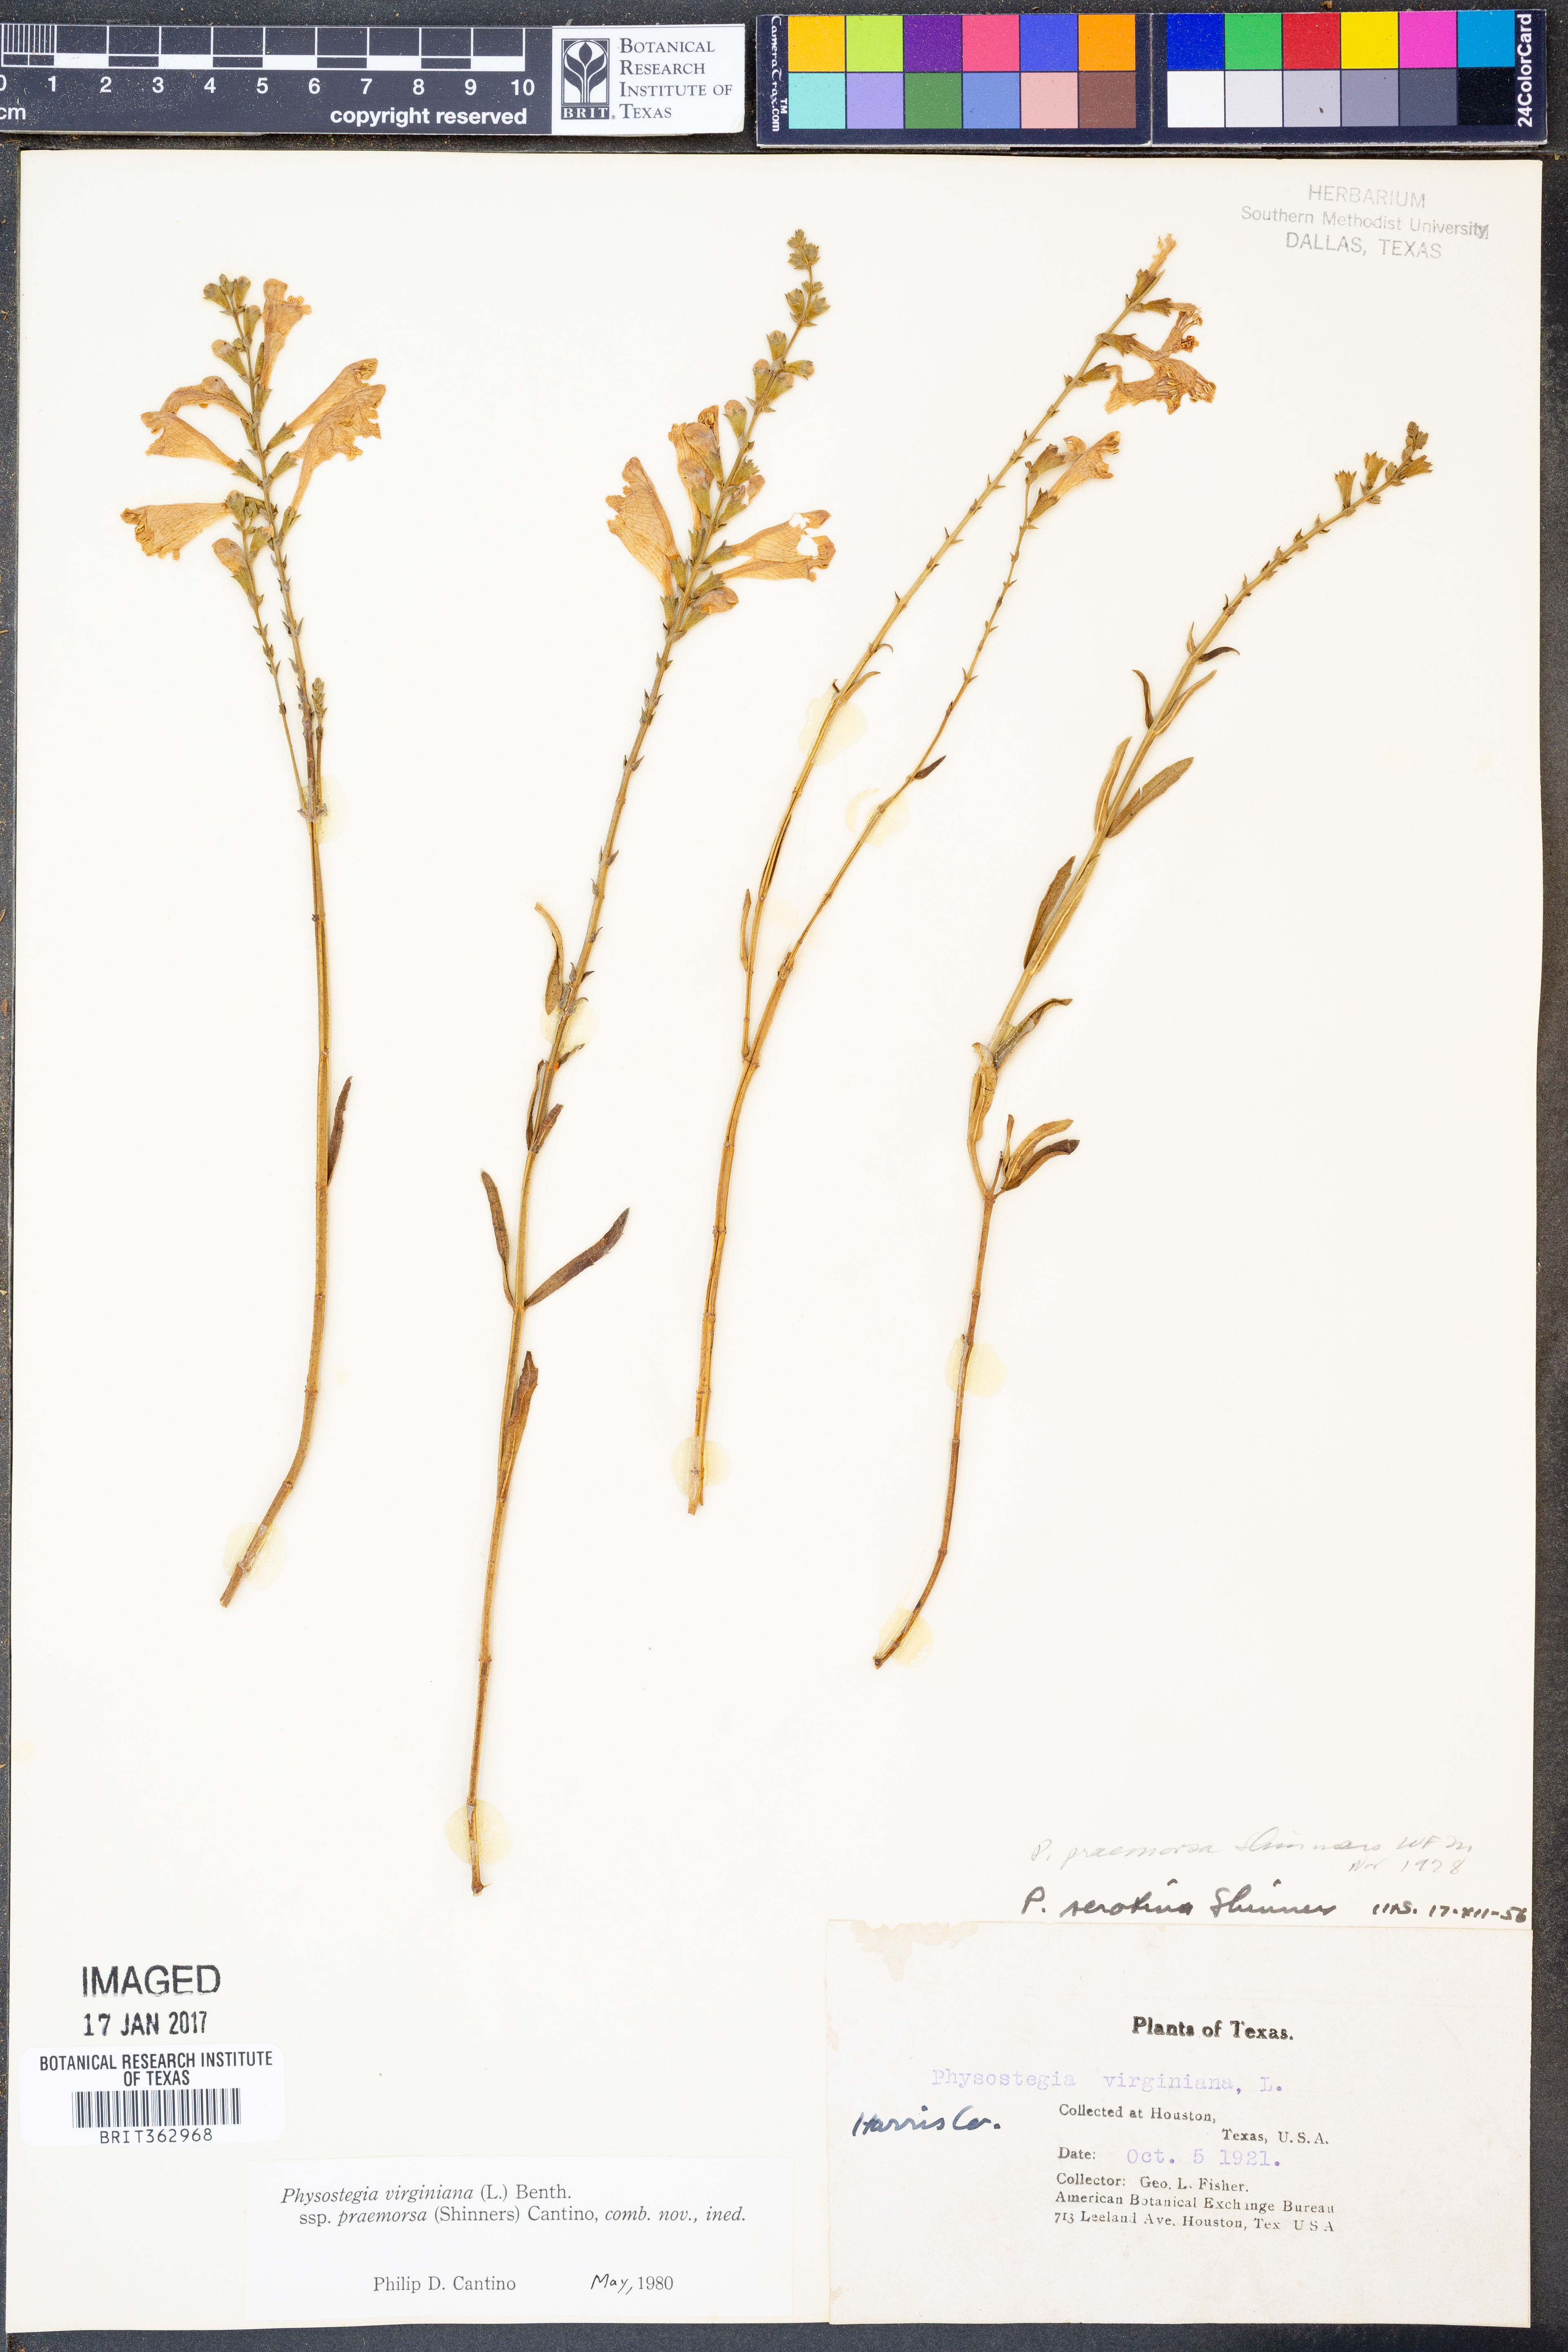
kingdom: Plantae
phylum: Tracheophyta
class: Magnoliopsida
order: Lamiales
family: Lamiaceae
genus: Physostegia
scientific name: Physostegia virginiana
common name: Obedient-plant
